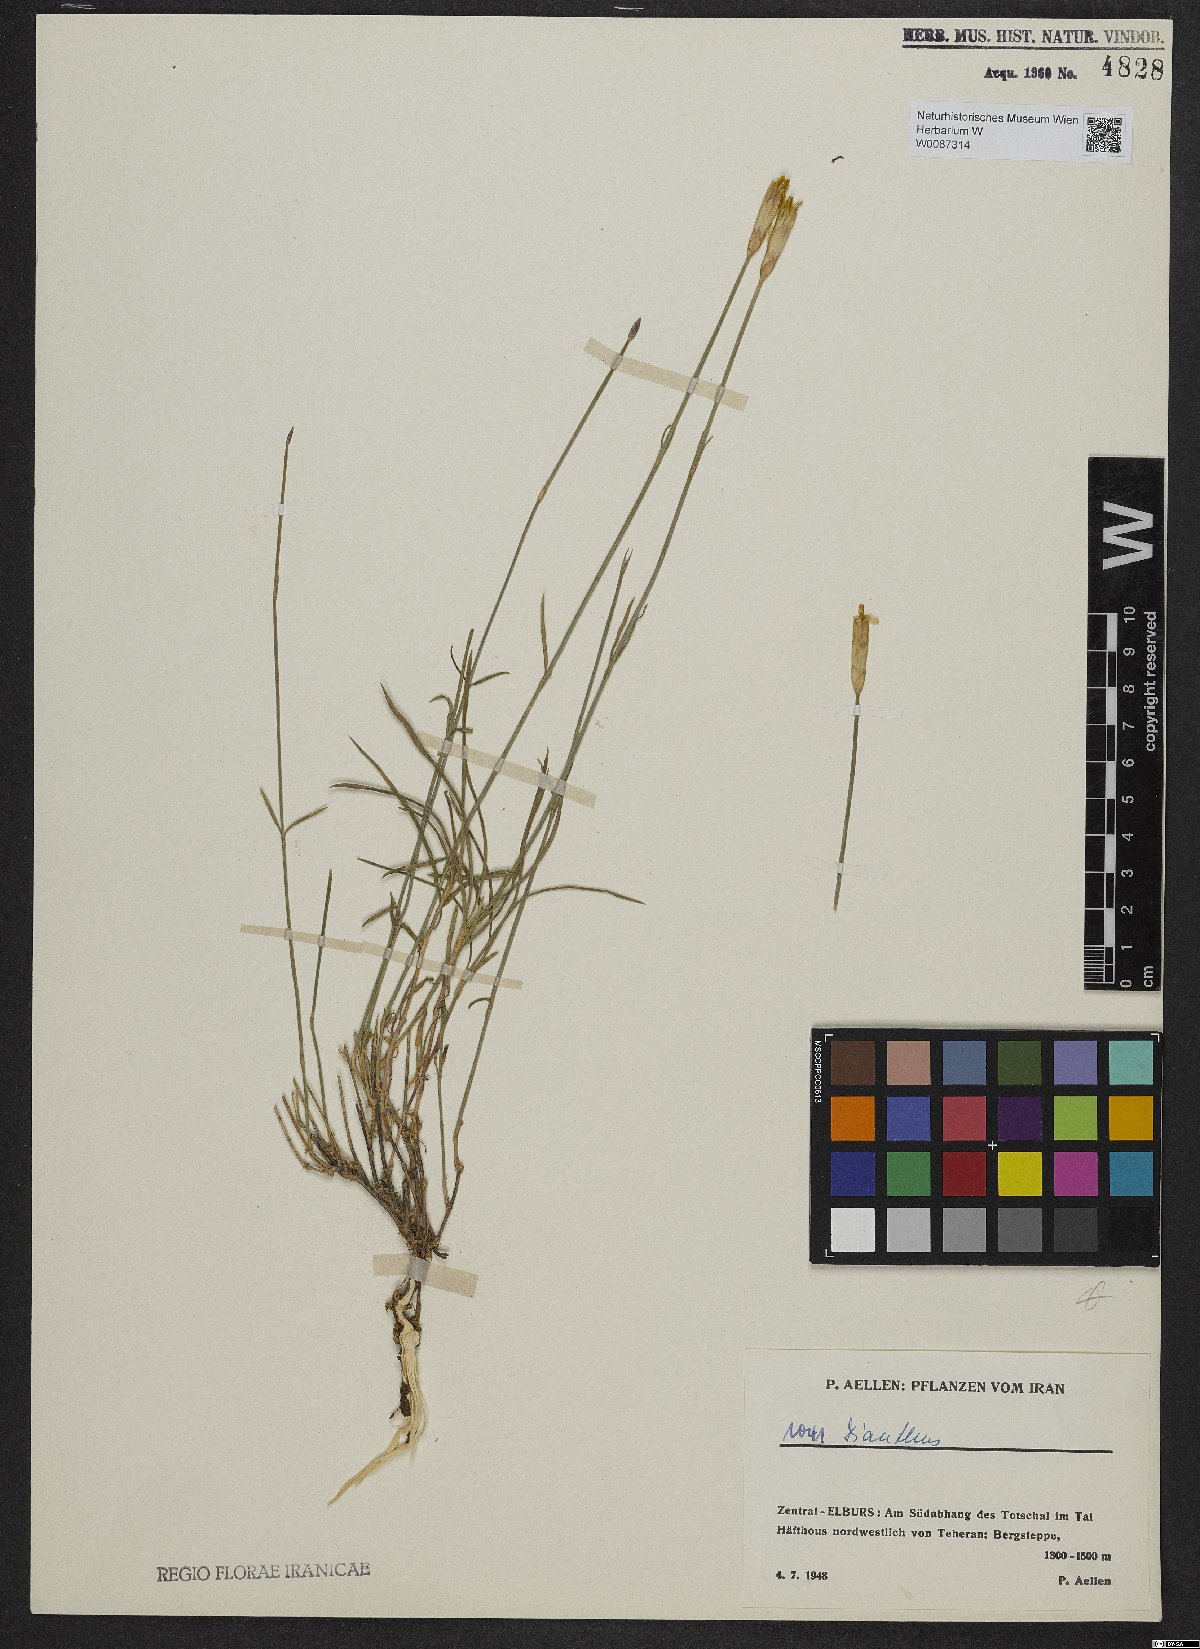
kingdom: Plantae
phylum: Tracheophyta
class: Magnoliopsida
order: Caryophyllales
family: Caryophyllaceae
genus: Dianthus
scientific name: Dianthus
